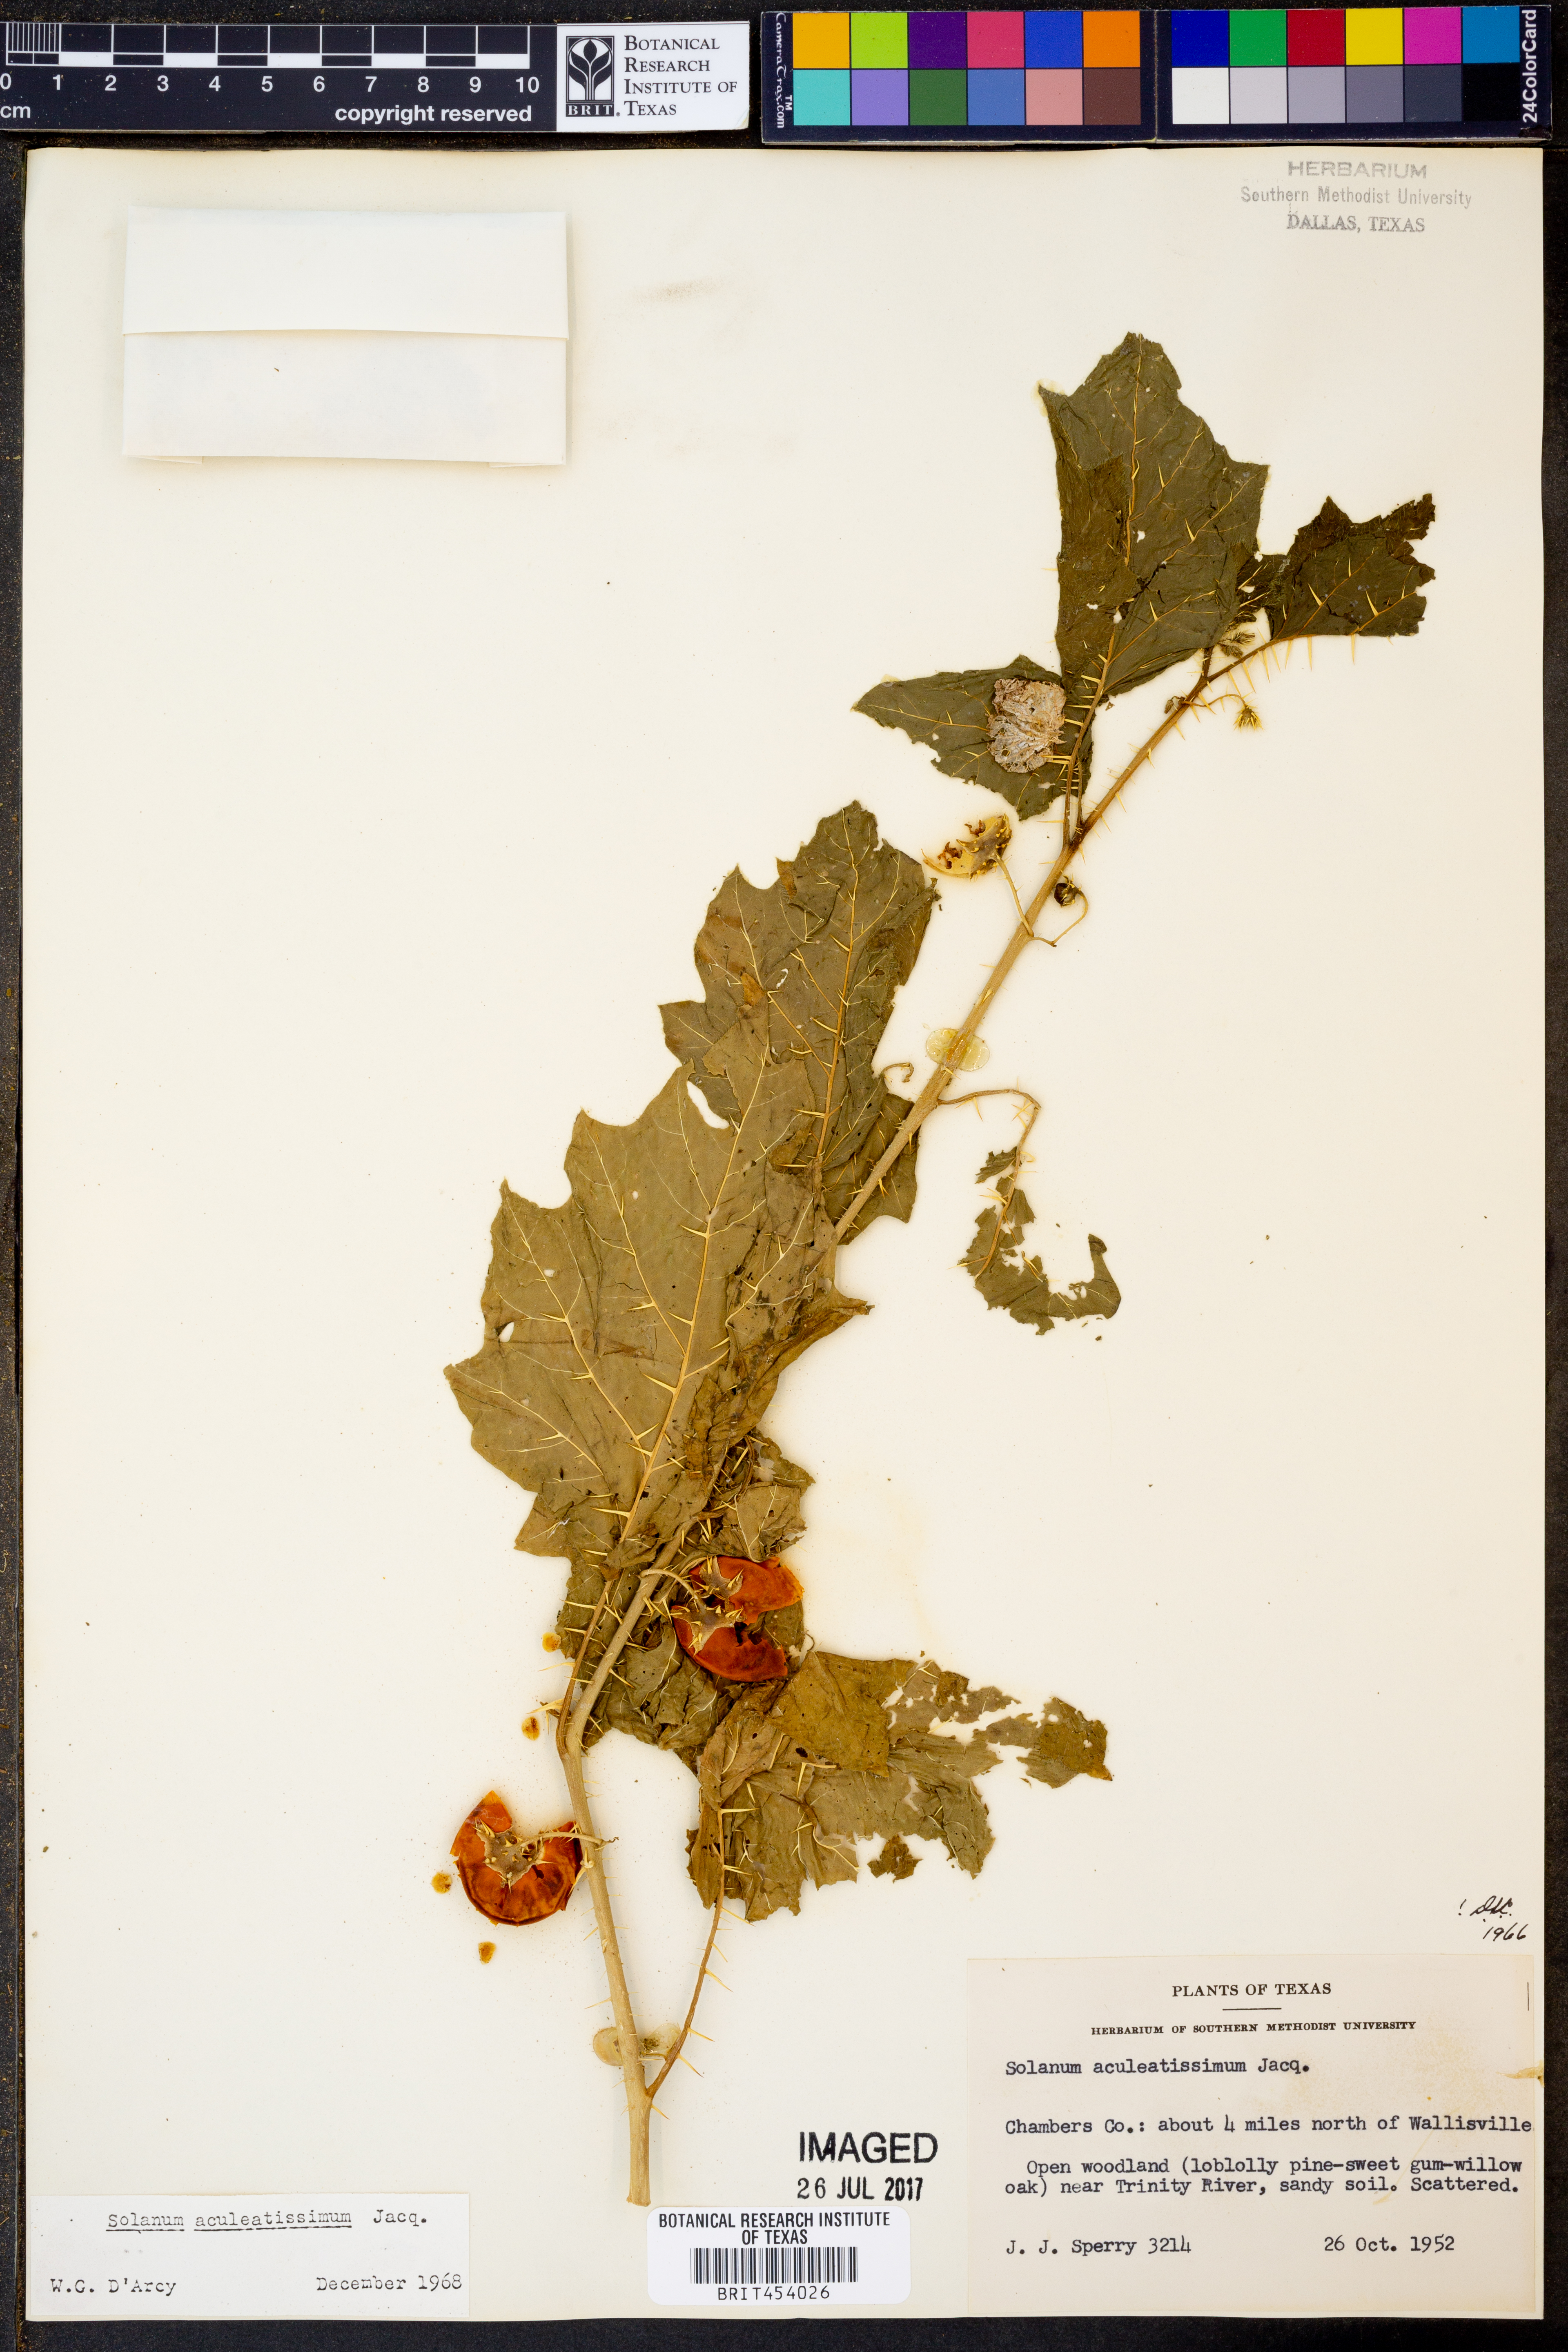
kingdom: Plantae
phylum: Tracheophyta
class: Magnoliopsida
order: Solanales
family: Solanaceae
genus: Solanum
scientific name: Solanum aculeatissimum
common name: Dutch eggplant
